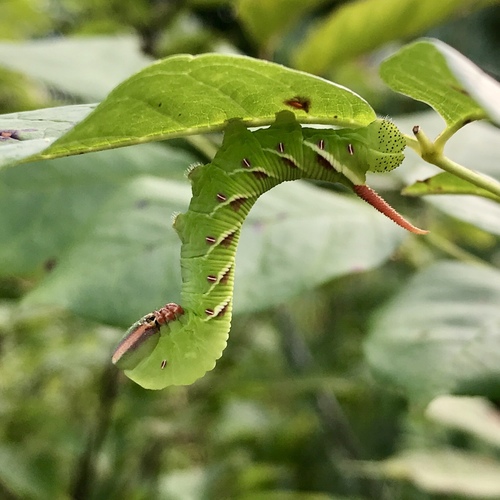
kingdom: Animalia
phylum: Arthropoda
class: Insecta
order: Lepidoptera
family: Sphingidae
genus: Ceratomia
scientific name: Ceratomia undulosa
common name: Waved sphinx
